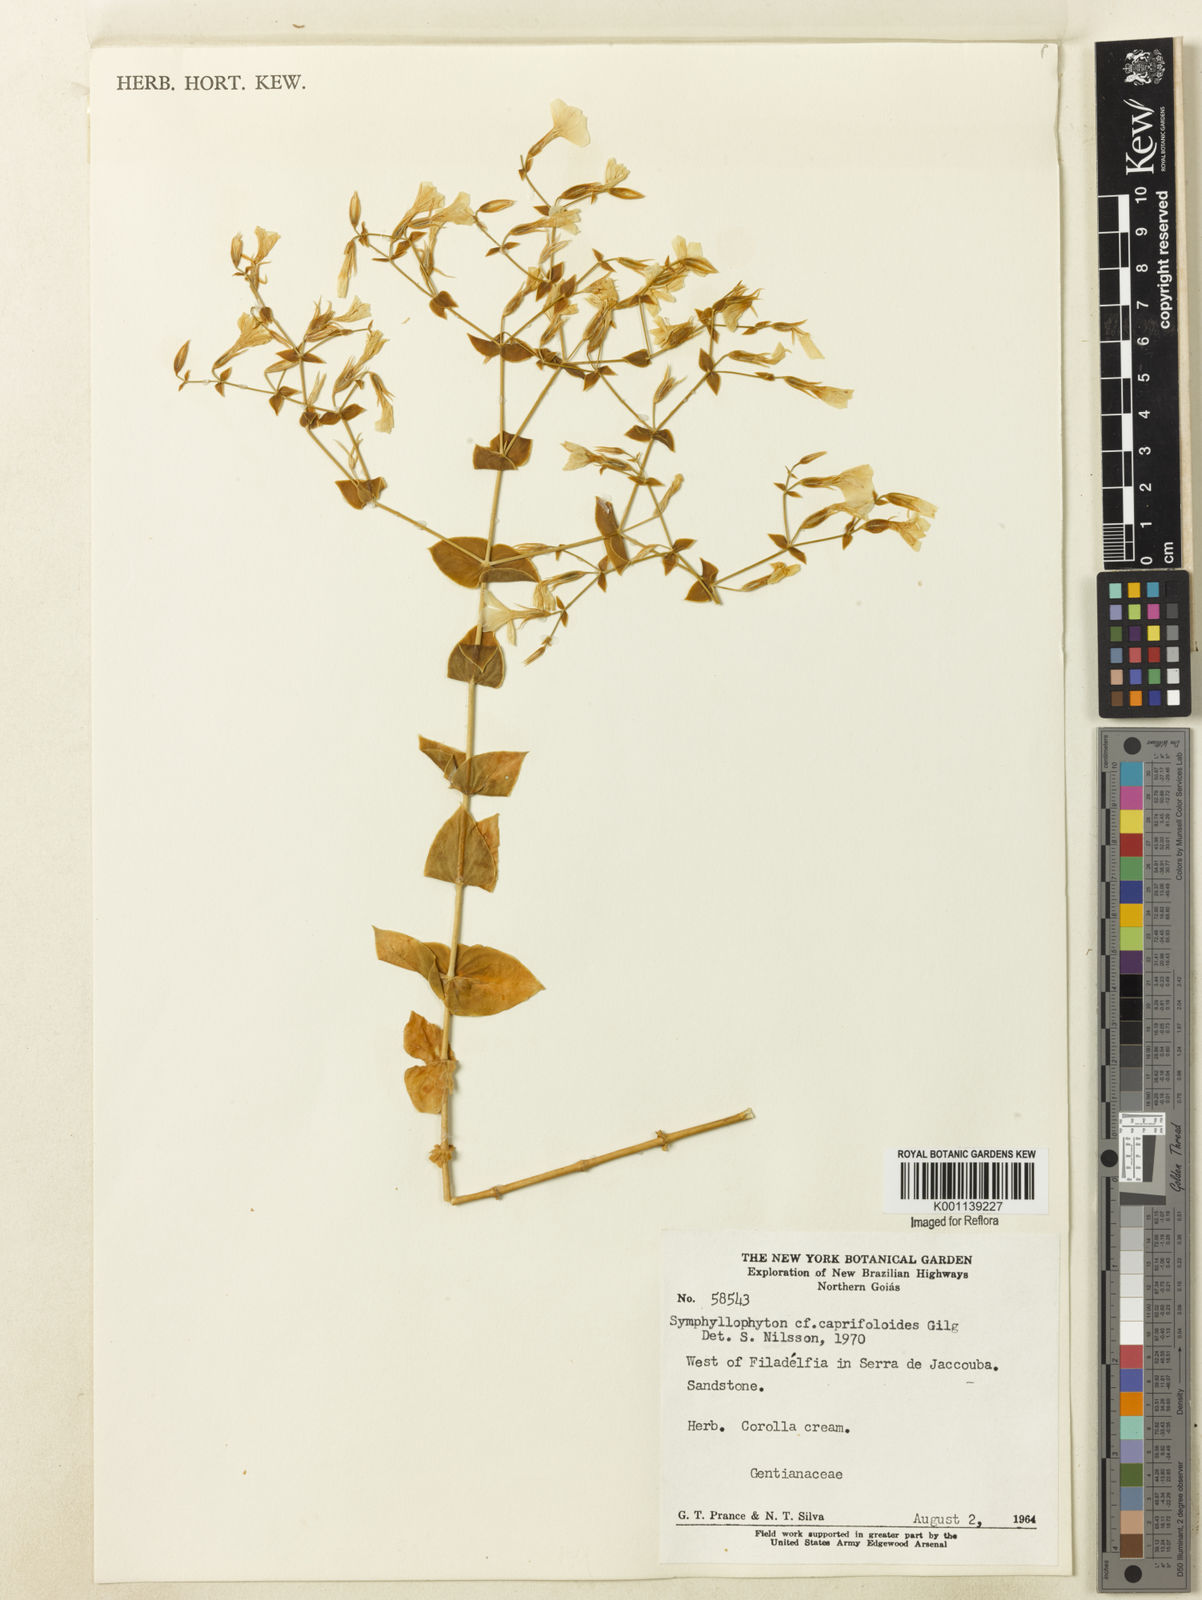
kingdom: Plantae
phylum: Tracheophyta
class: Magnoliopsida
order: Gentianales
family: Gentianaceae
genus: Symphyllophyton
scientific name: Symphyllophyton caprifolioides
